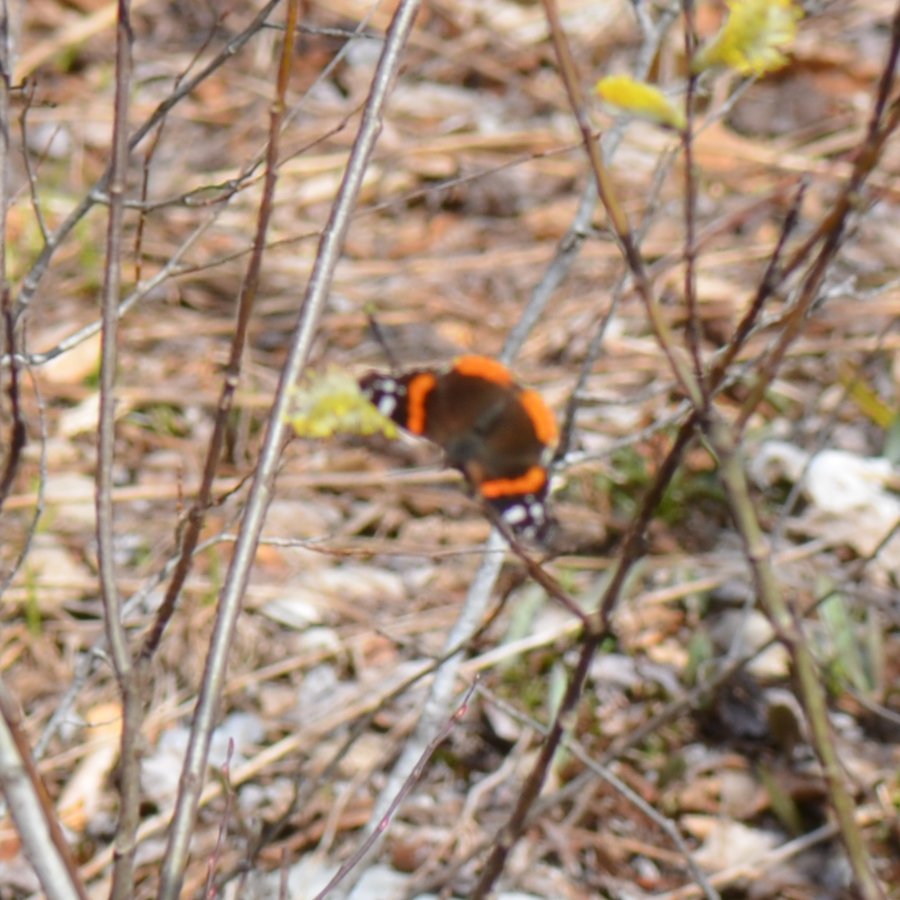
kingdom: Animalia
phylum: Arthropoda
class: Insecta
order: Lepidoptera
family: Nymphalidae
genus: Vanessa
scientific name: Vanessa atalanta
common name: Red Admiral
